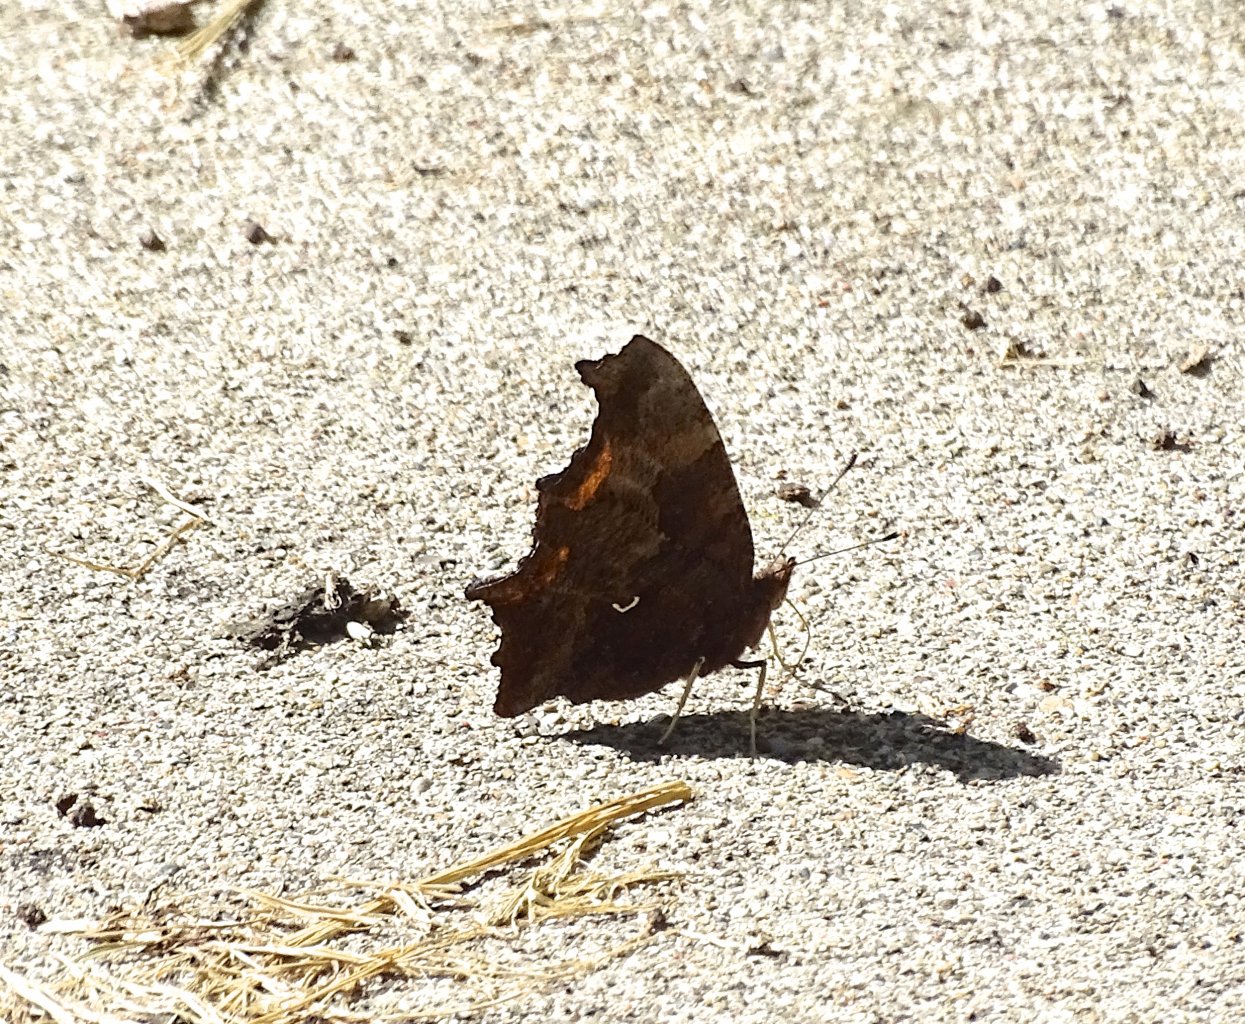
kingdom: Animalia
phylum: Arthropoda
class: Insecta
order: Lepidoptera
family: Nymphalidae
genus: Polygonia
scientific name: Polygonia comma
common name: Eastern Comma
